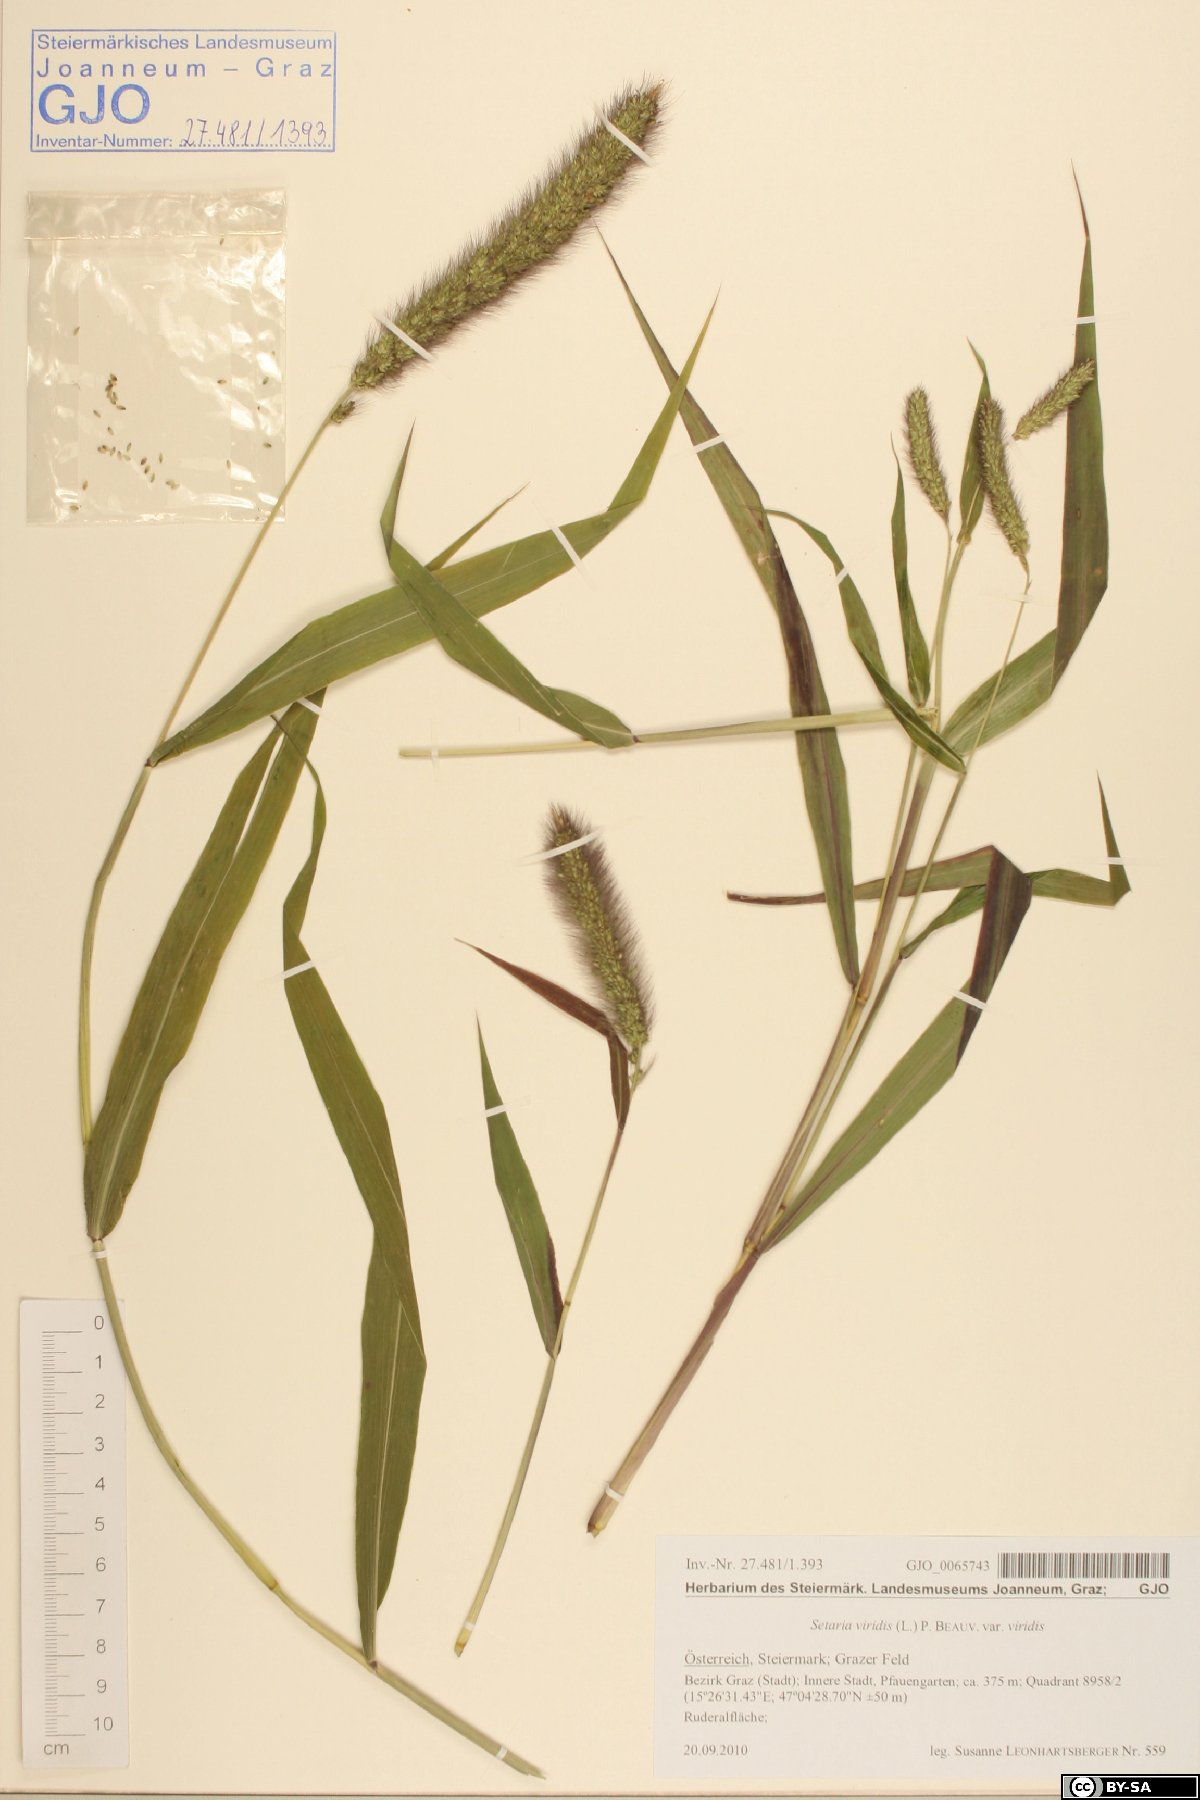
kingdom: Plantae
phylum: Tracheophyta
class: Liliopsida
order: Poales
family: Poaceae
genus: Setaria
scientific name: Setaria viridis
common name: Green bristlegrass
